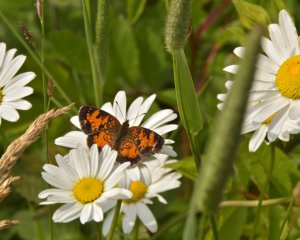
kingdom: Animalia
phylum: Arthropoda
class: Insecta
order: Lepidoptera
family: Nymphalidae
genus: Phyciodes
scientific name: Phyciodes tharos
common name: Northern Crescent
